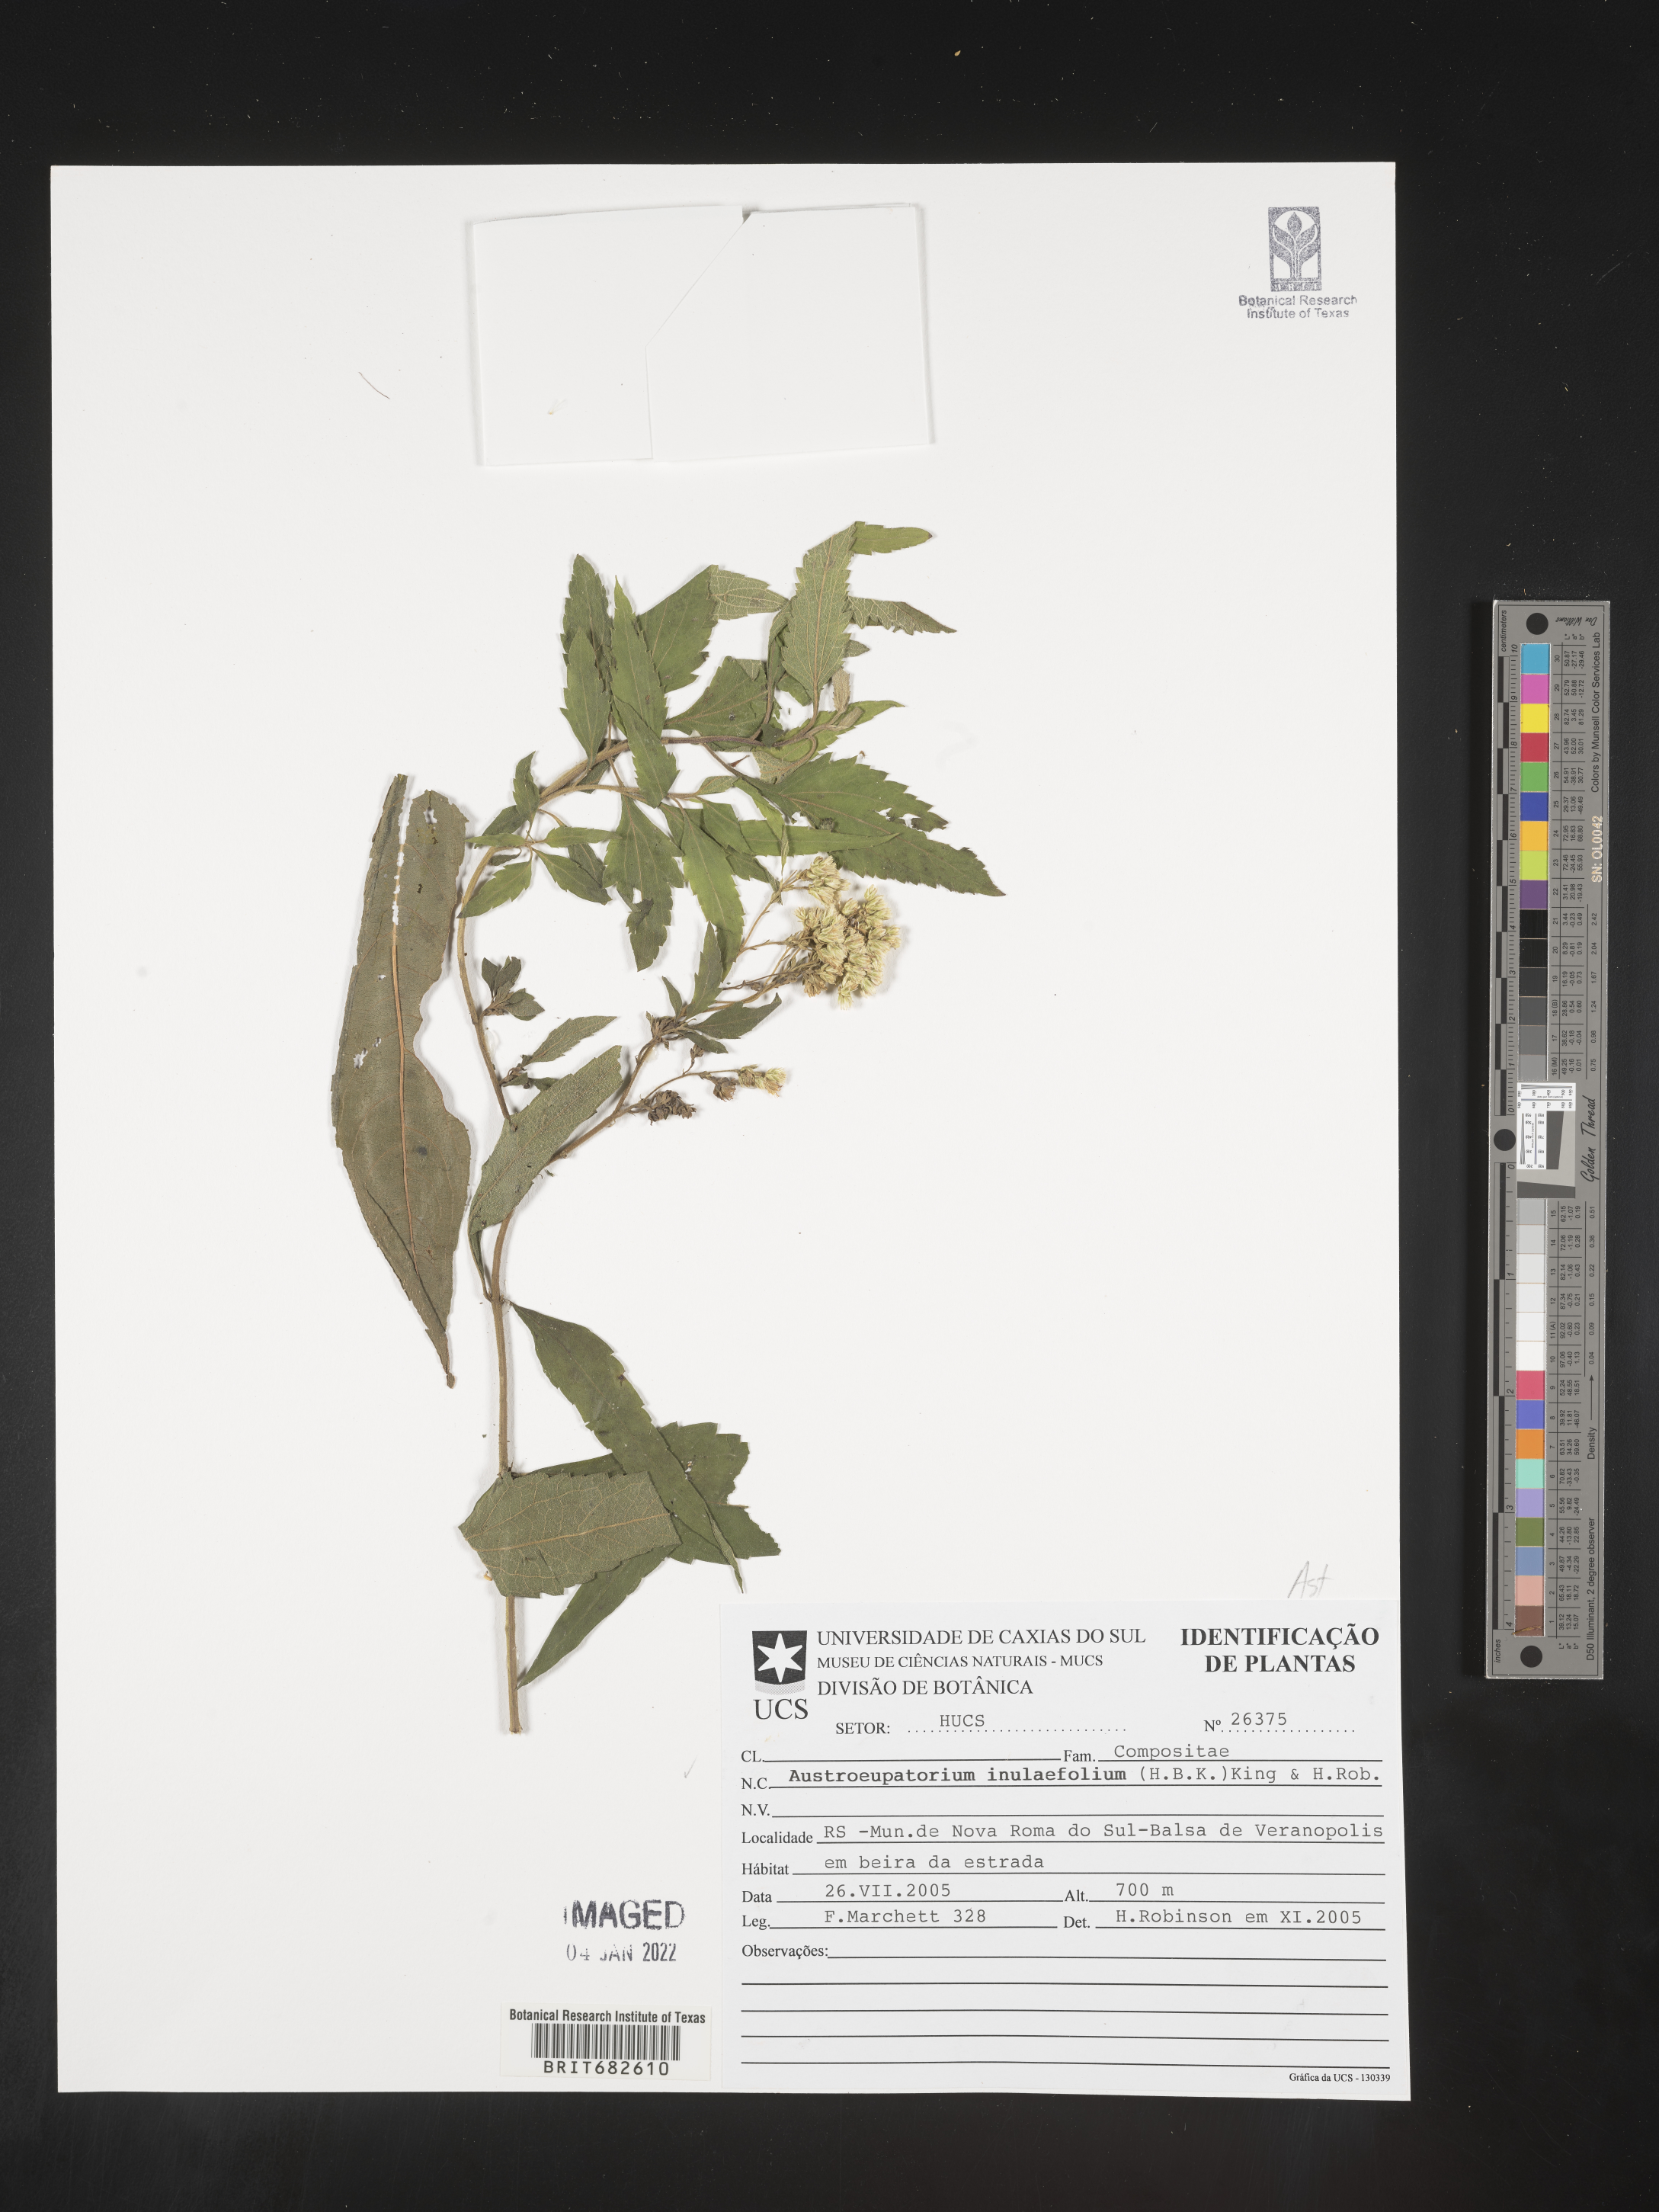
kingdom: Plantae
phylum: Tracheophyta
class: Magnoliopsida
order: Asterales
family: Asteraceae
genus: Austroeupatorium
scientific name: Austroeupatorium
